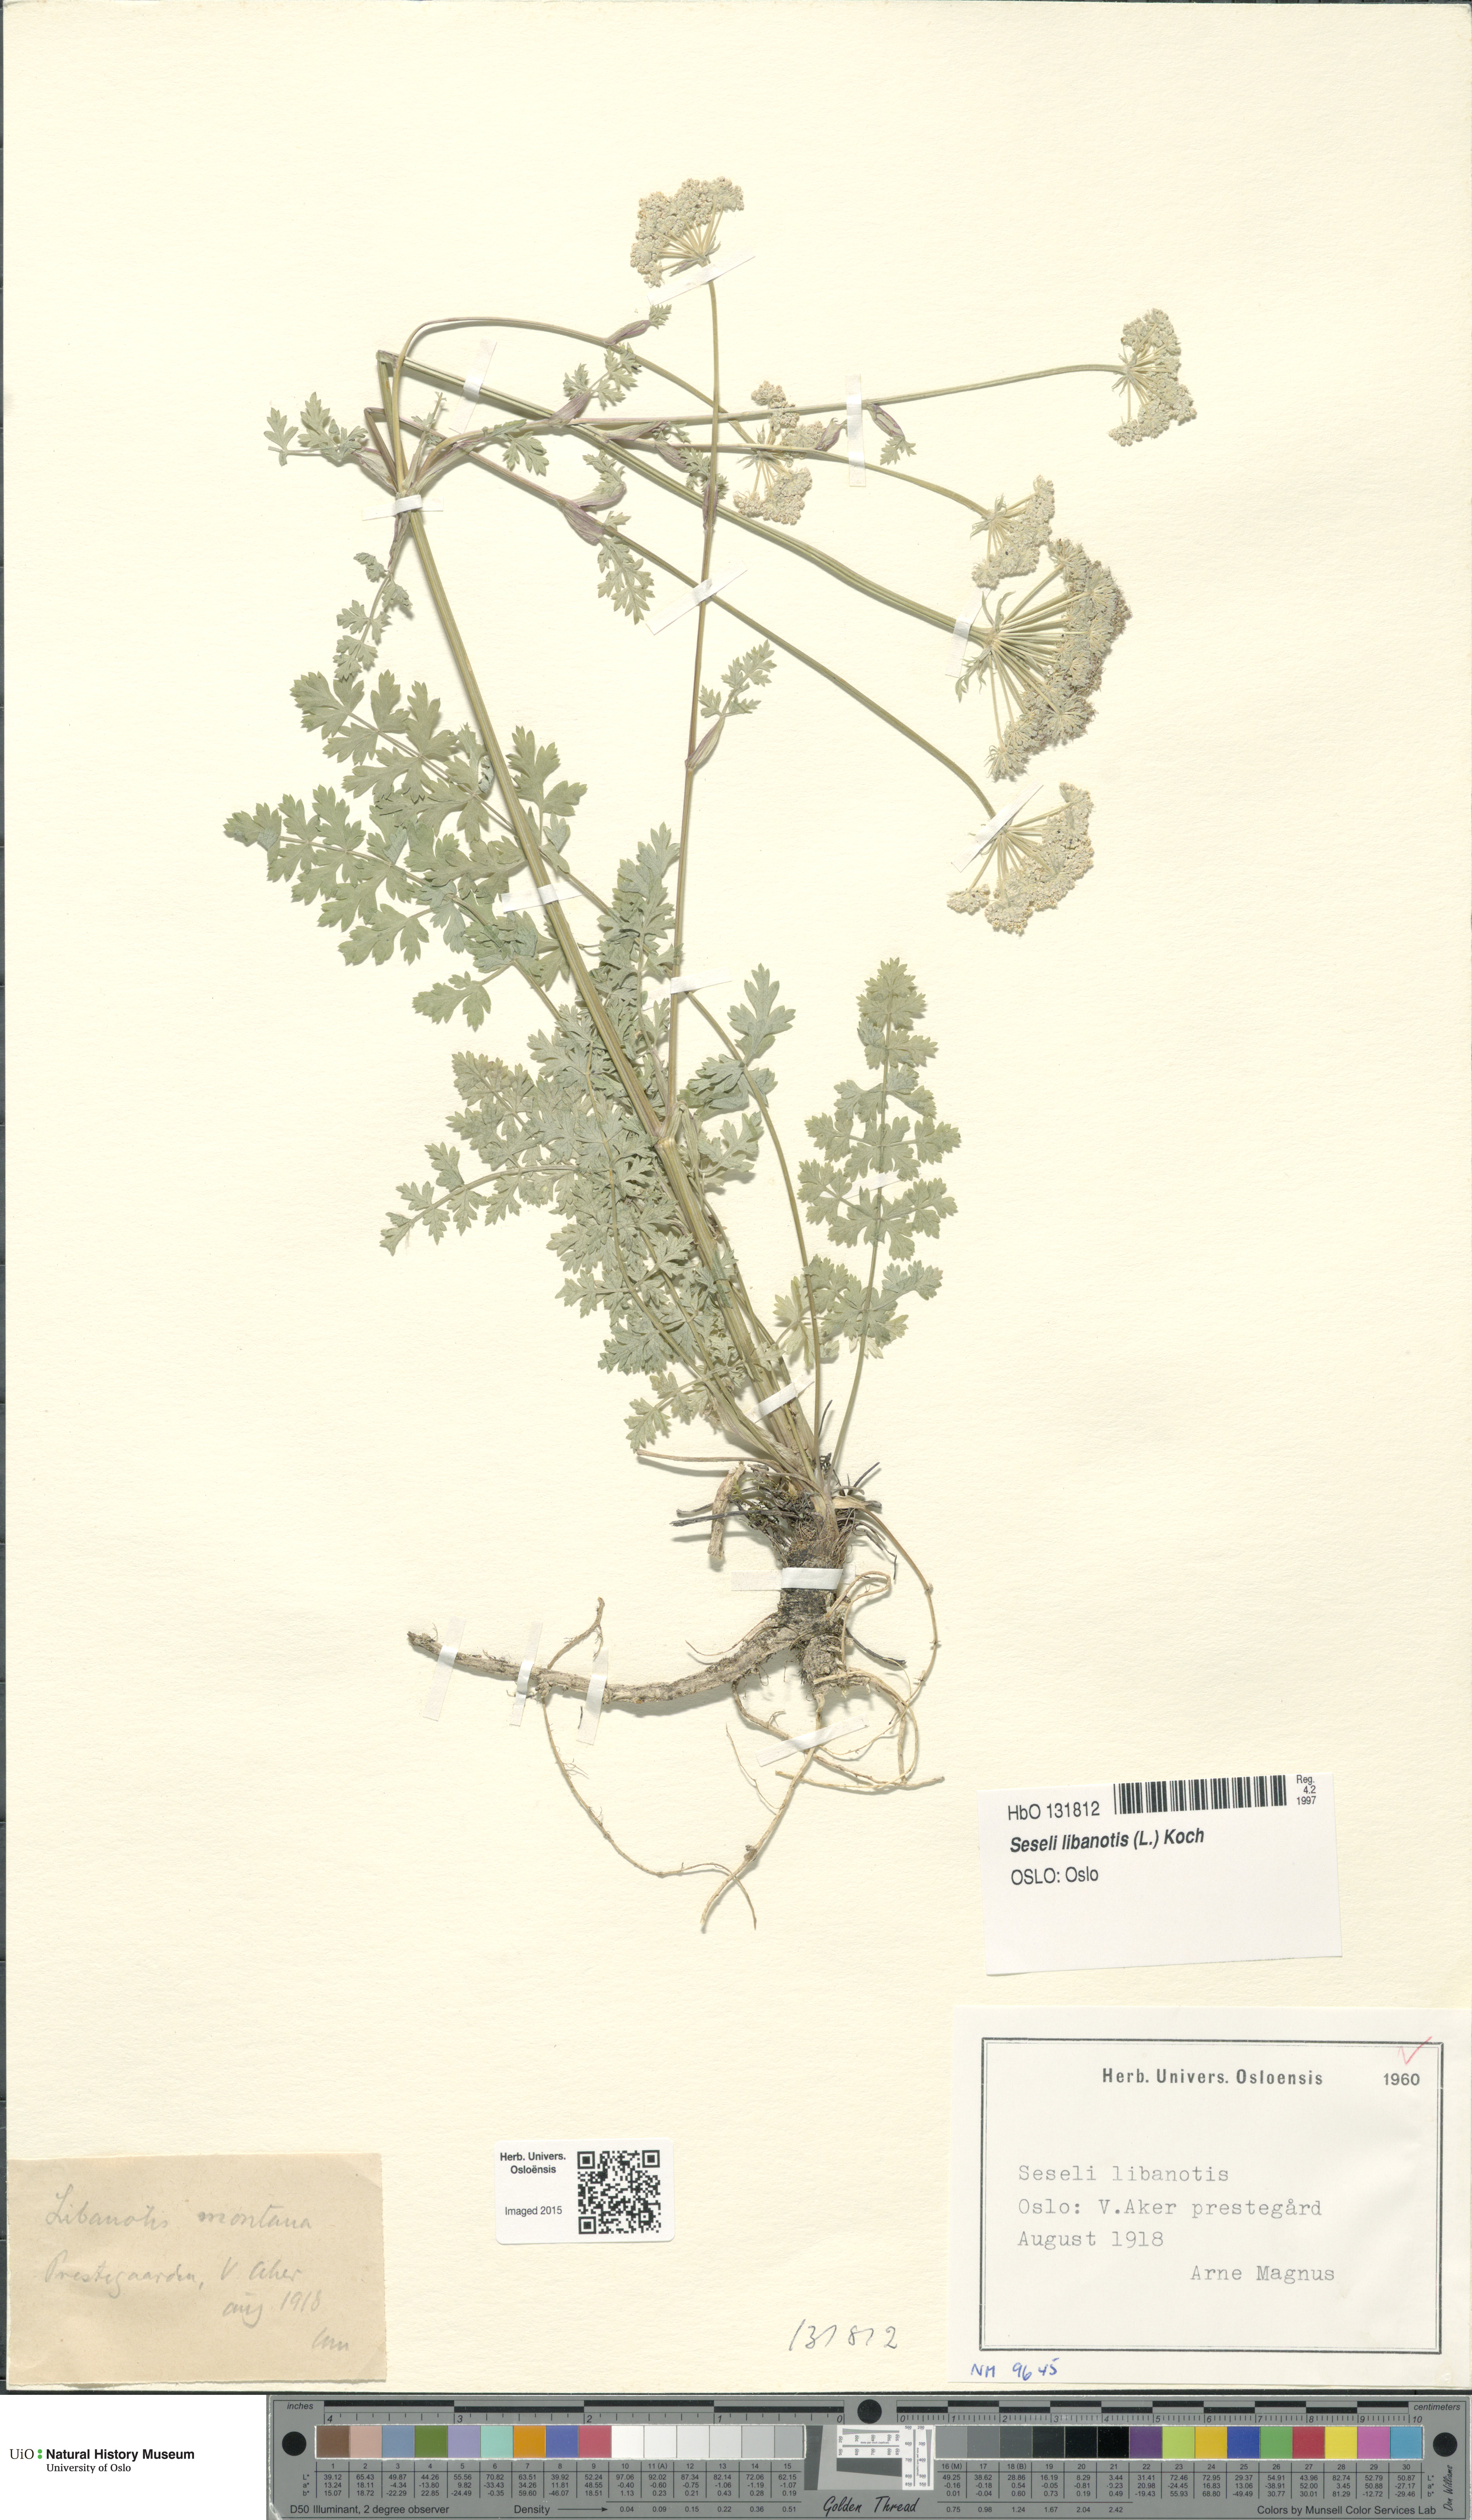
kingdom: Plantae
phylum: Tracheophyta
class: Magnoliopsida
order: Apiales
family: Apiaceae
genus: Seseli
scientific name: Seseli libanotis
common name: Mooncarrot
